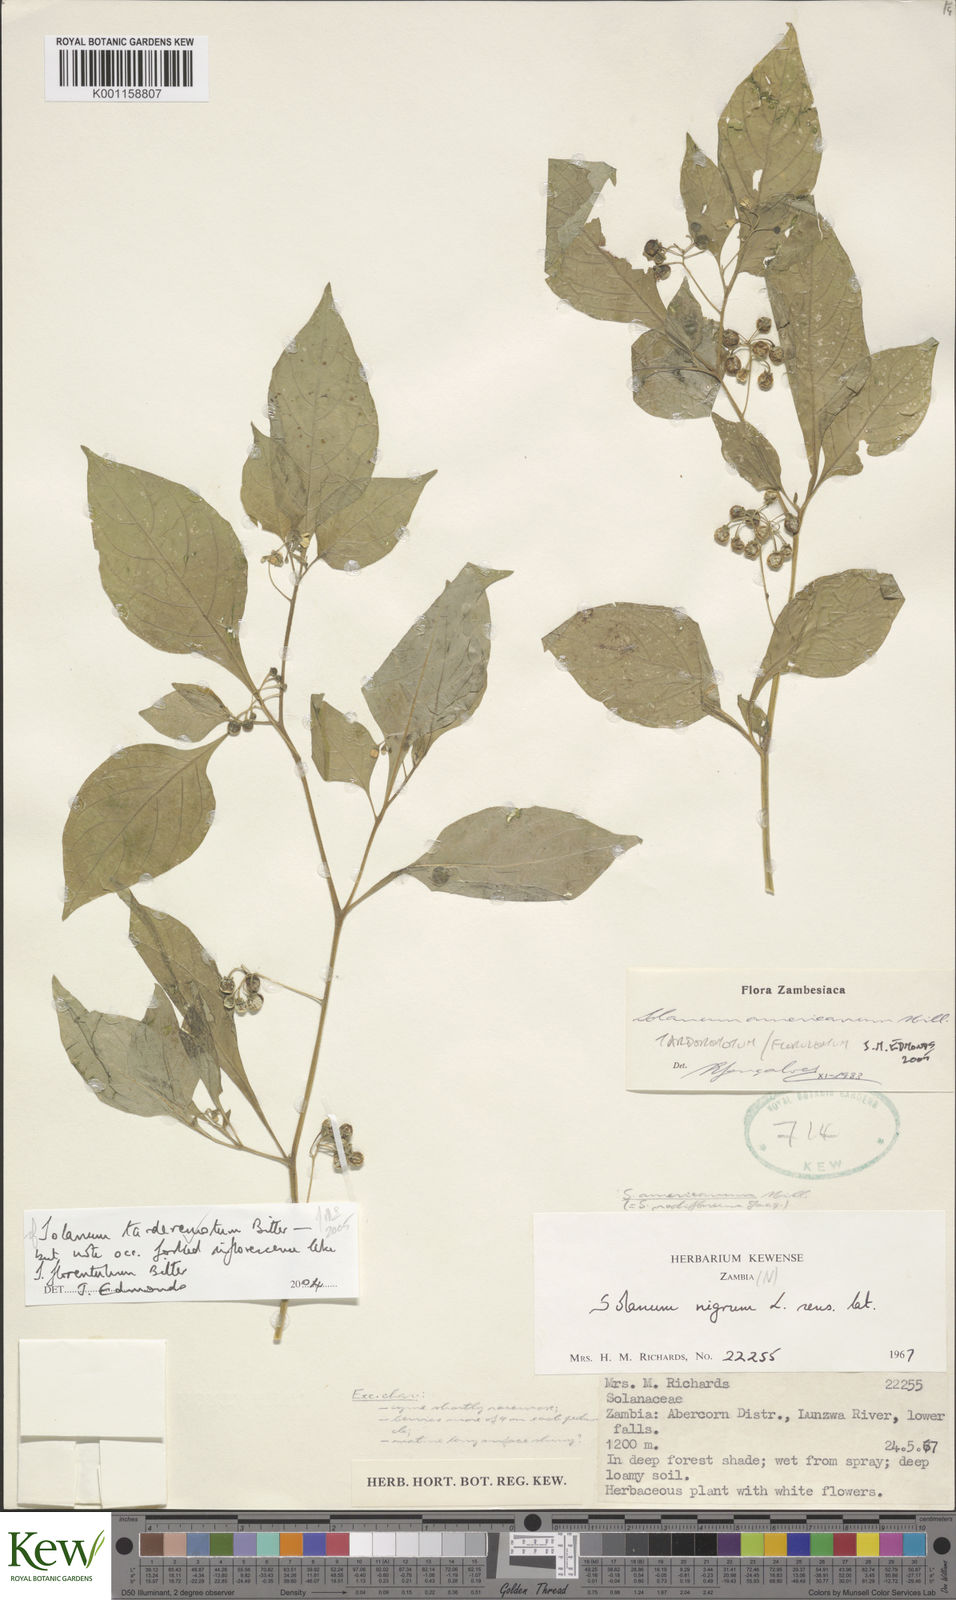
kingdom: Plantae
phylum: Tracheophyta
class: Magnoliopsida
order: Solanales
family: Solanaceae
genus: Solanum
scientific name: Solanum tarderemotum
